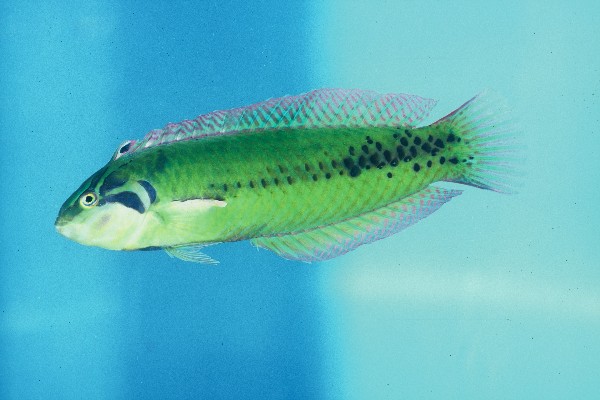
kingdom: Animalia
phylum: Chordata
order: Perciformes
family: Labridae
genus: Novaculoides
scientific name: Novaculoides macrolepidotus
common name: Seagrass wrasse
